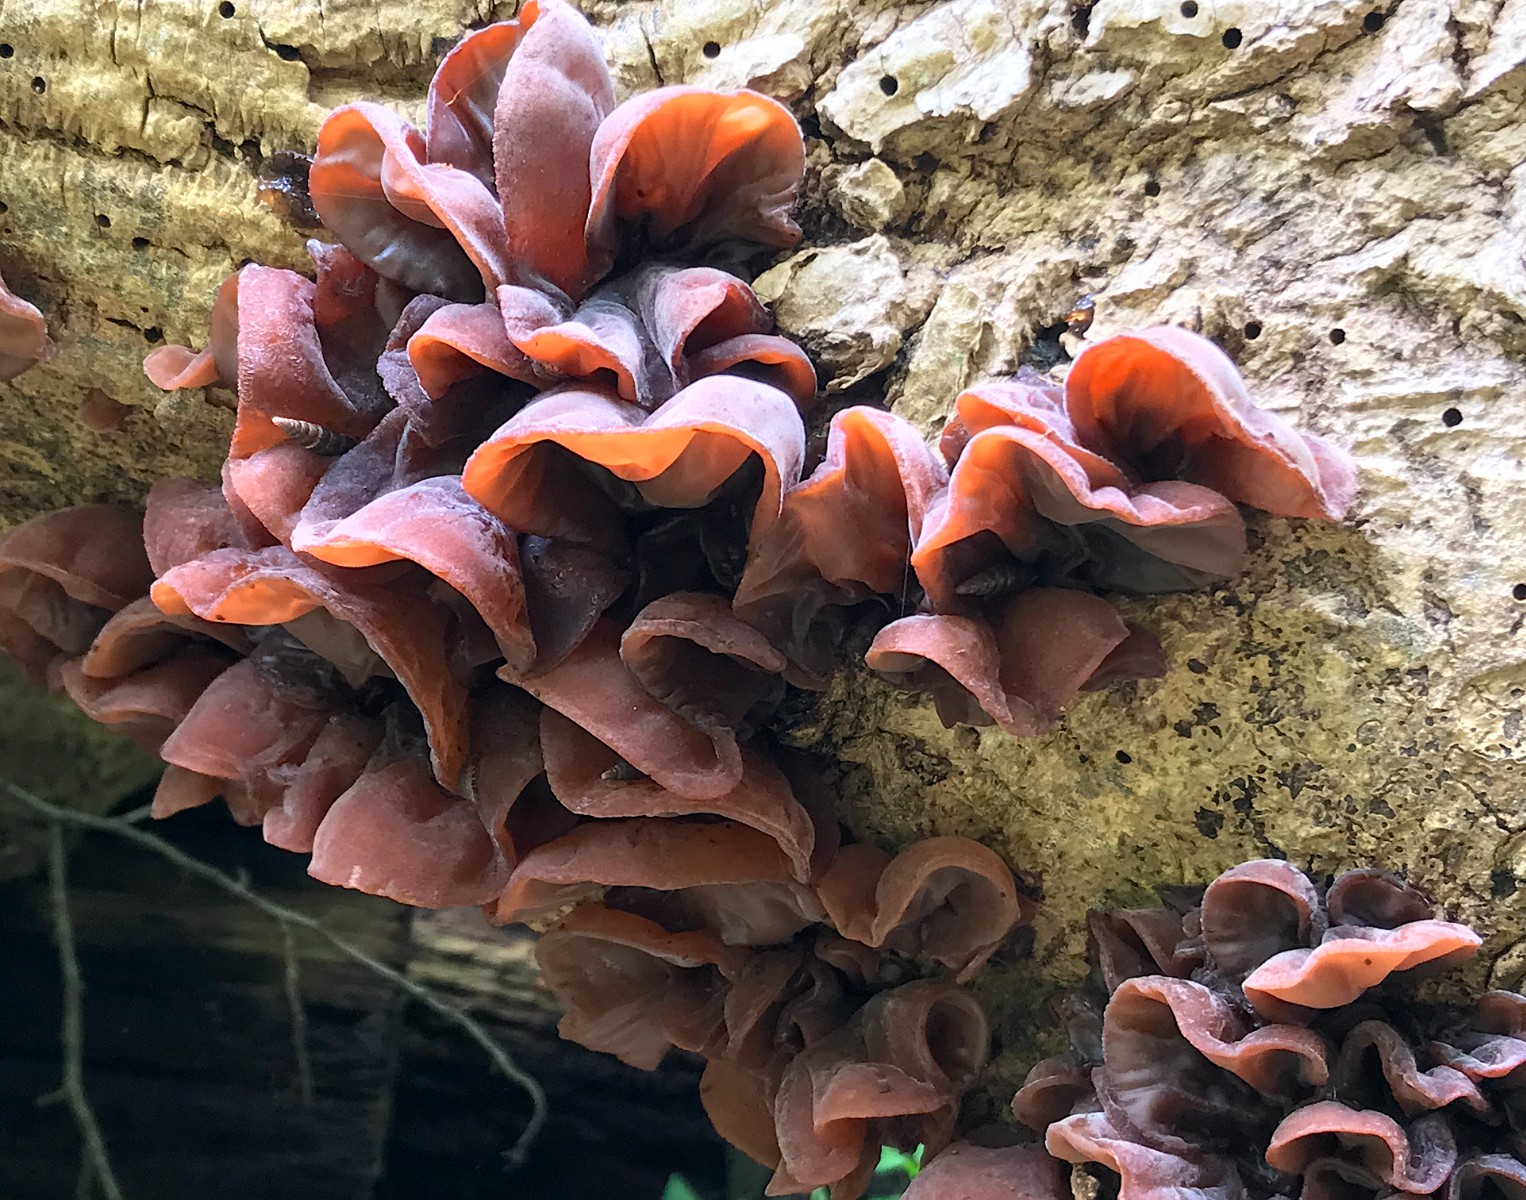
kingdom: Fungi
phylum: Basidiomycota
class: Agaricomycetes
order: Auriculariales
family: Auriculariaceae
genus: Auricularia
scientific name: Auricularia auricula-judae
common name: almindelig judasøre
